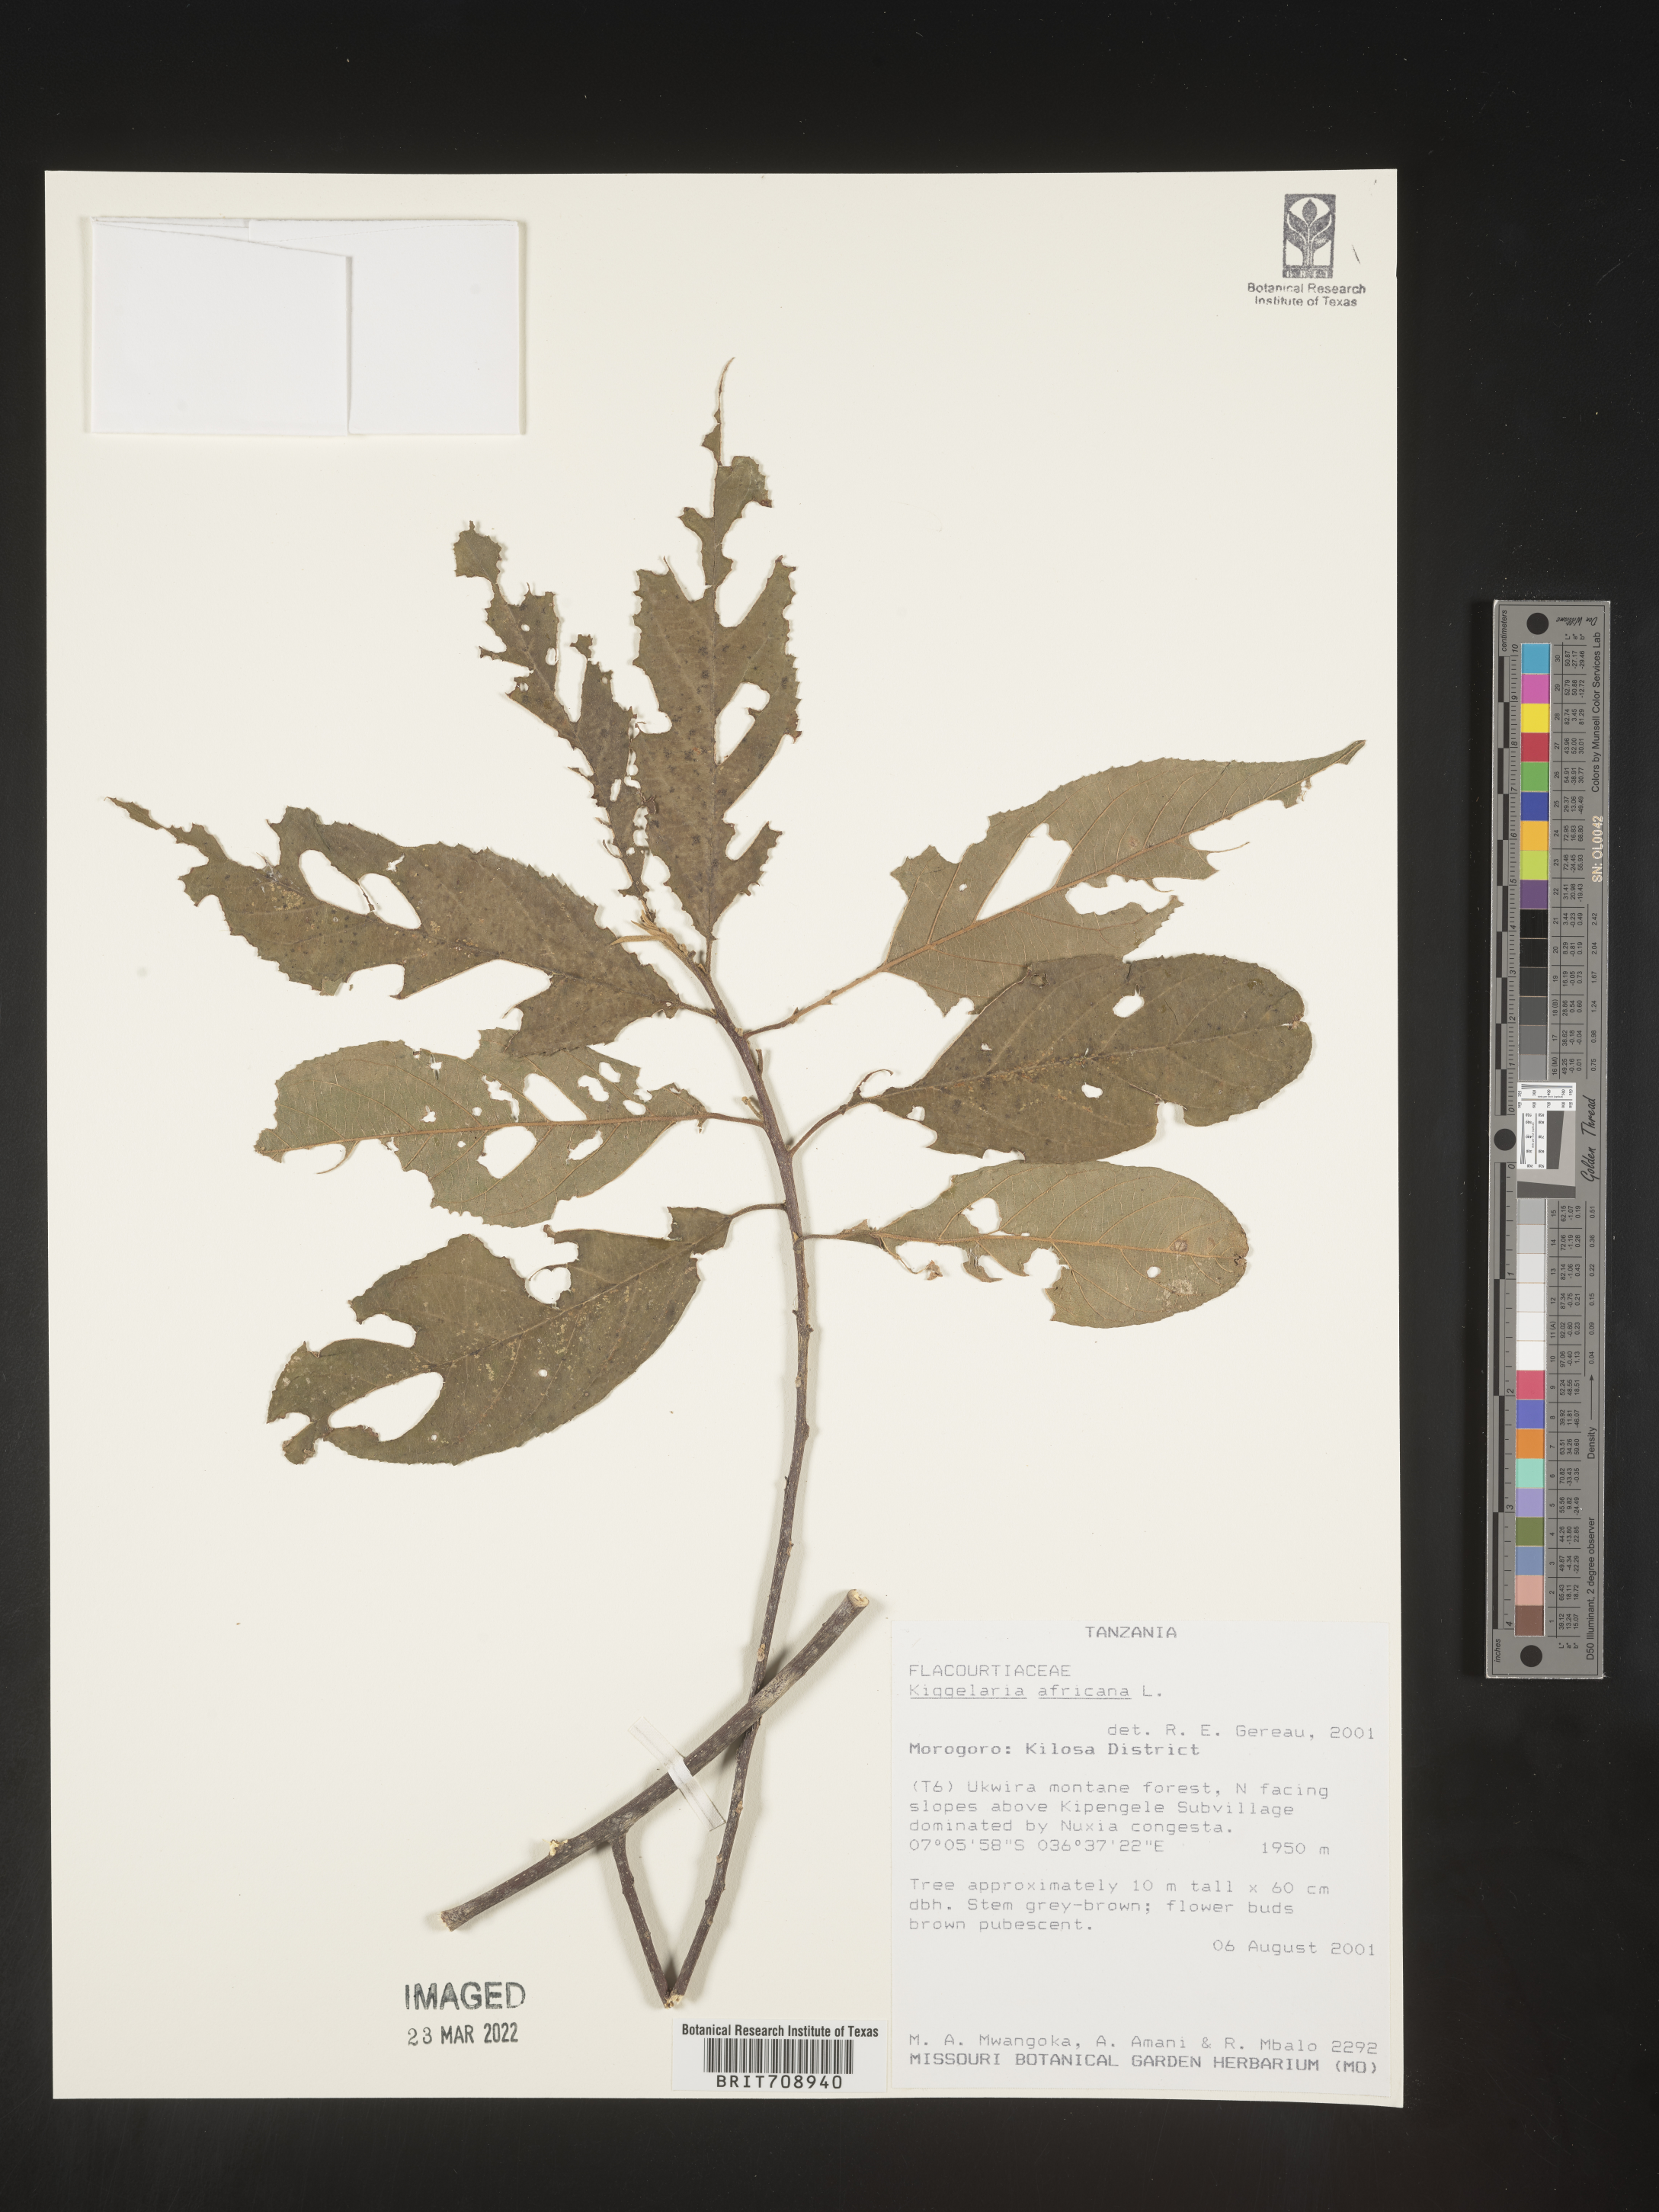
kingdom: Plantae
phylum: Tracheophyta
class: Magnoliopsida
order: Malpighiales
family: Achariaceae
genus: Kiggelaria
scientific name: Kiggelaria
